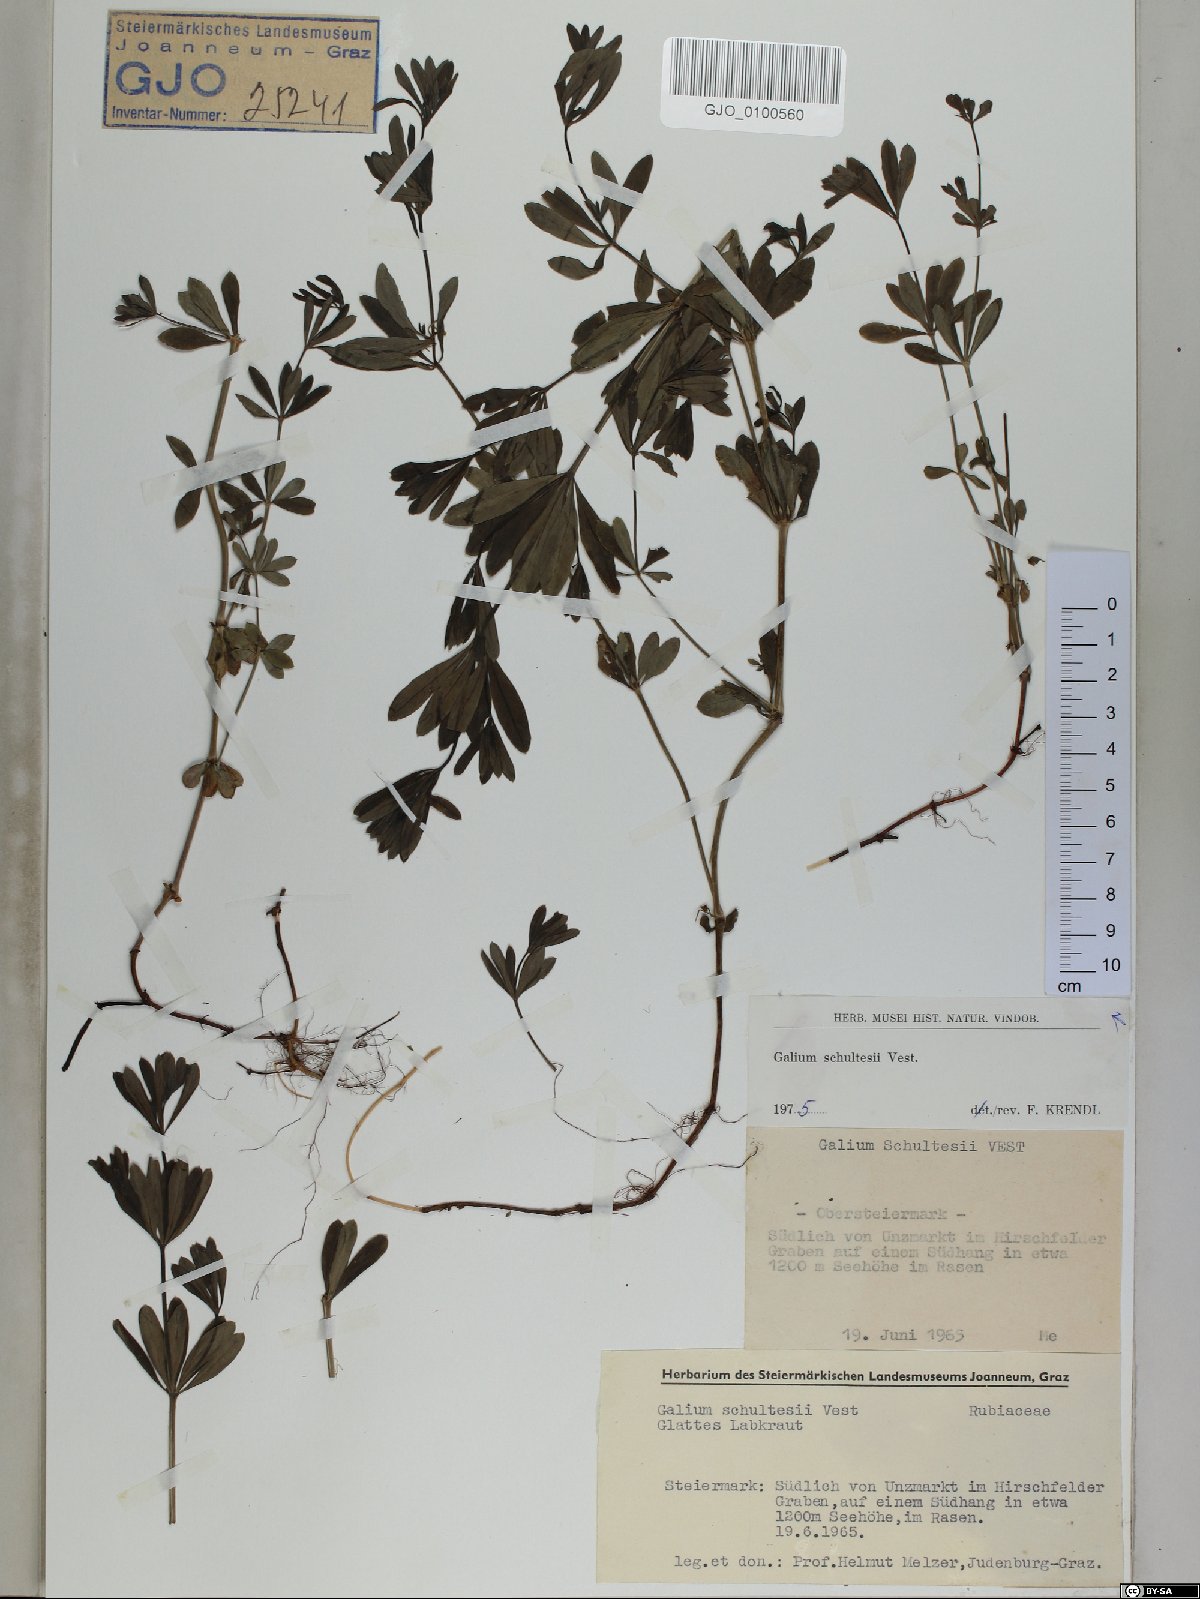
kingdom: Plantae
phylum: Tracheophyta
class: Magnoliopsida
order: Gentianales
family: Rubiaceae
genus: Galium
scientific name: Galium intermedium
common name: Bedstraw
